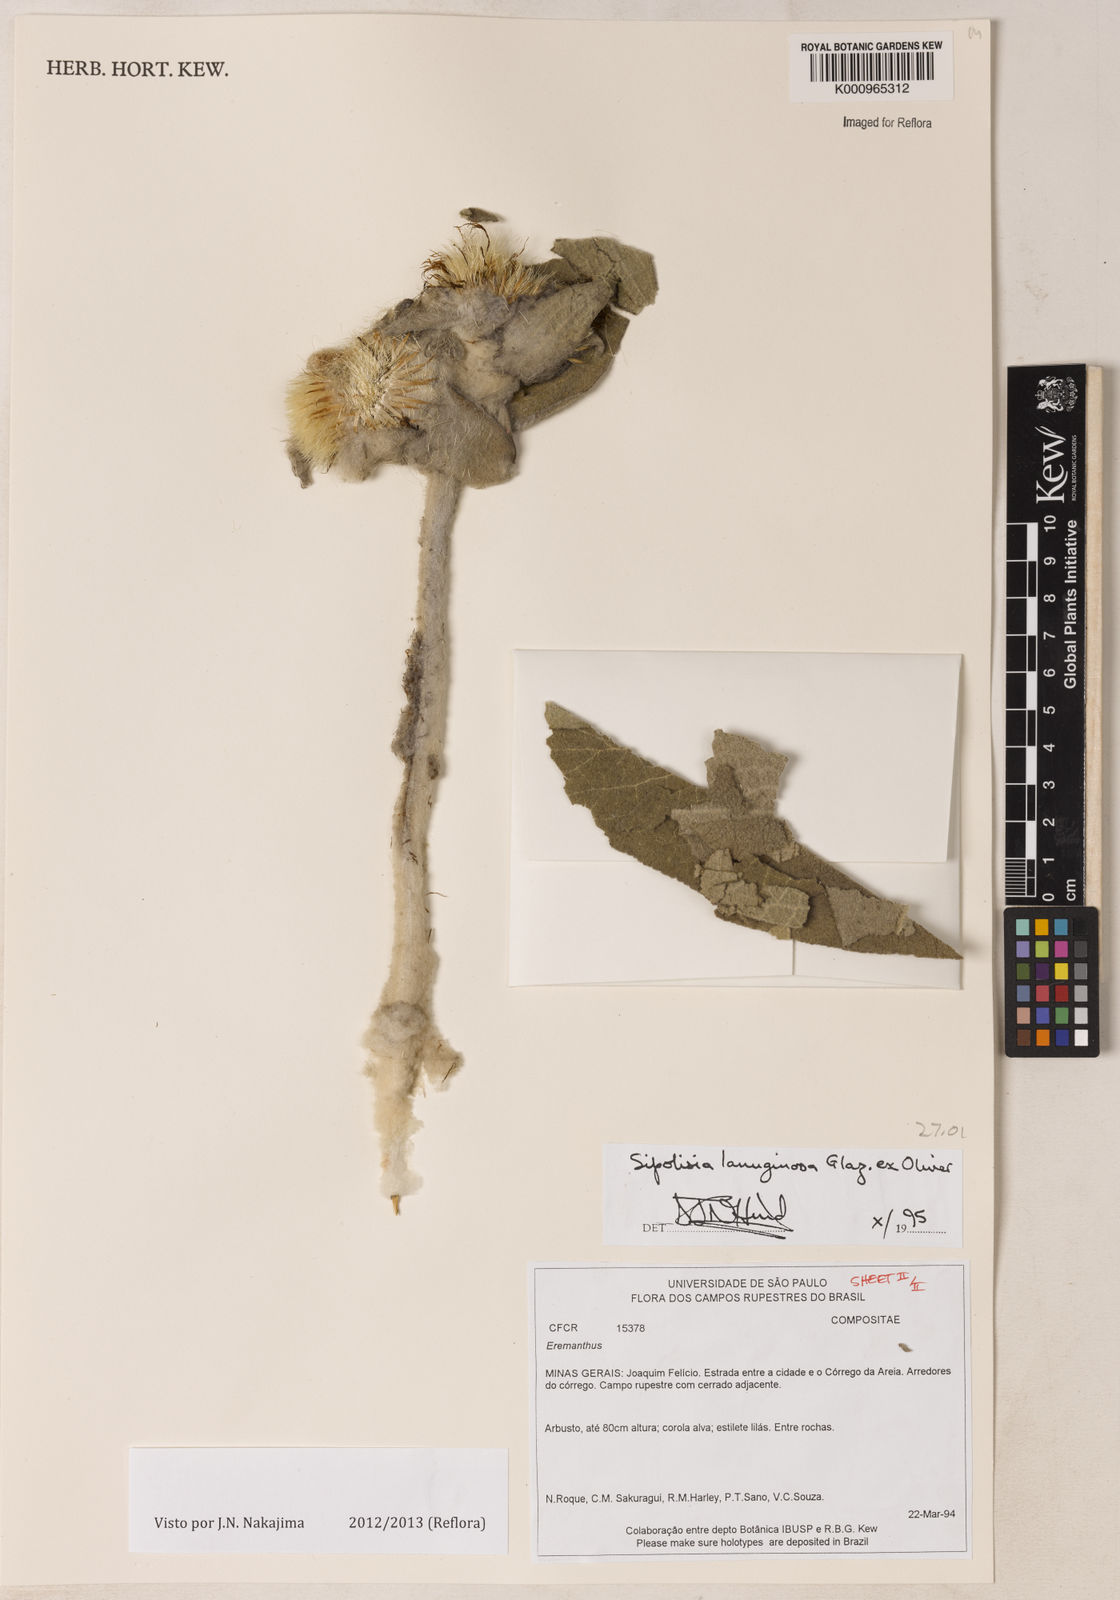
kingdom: Plantae
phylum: Tracheophyta
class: Magnoliopsida
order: Asterales
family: Asteraceae
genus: Heterocoma
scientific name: Heterocoma lanuginosa
